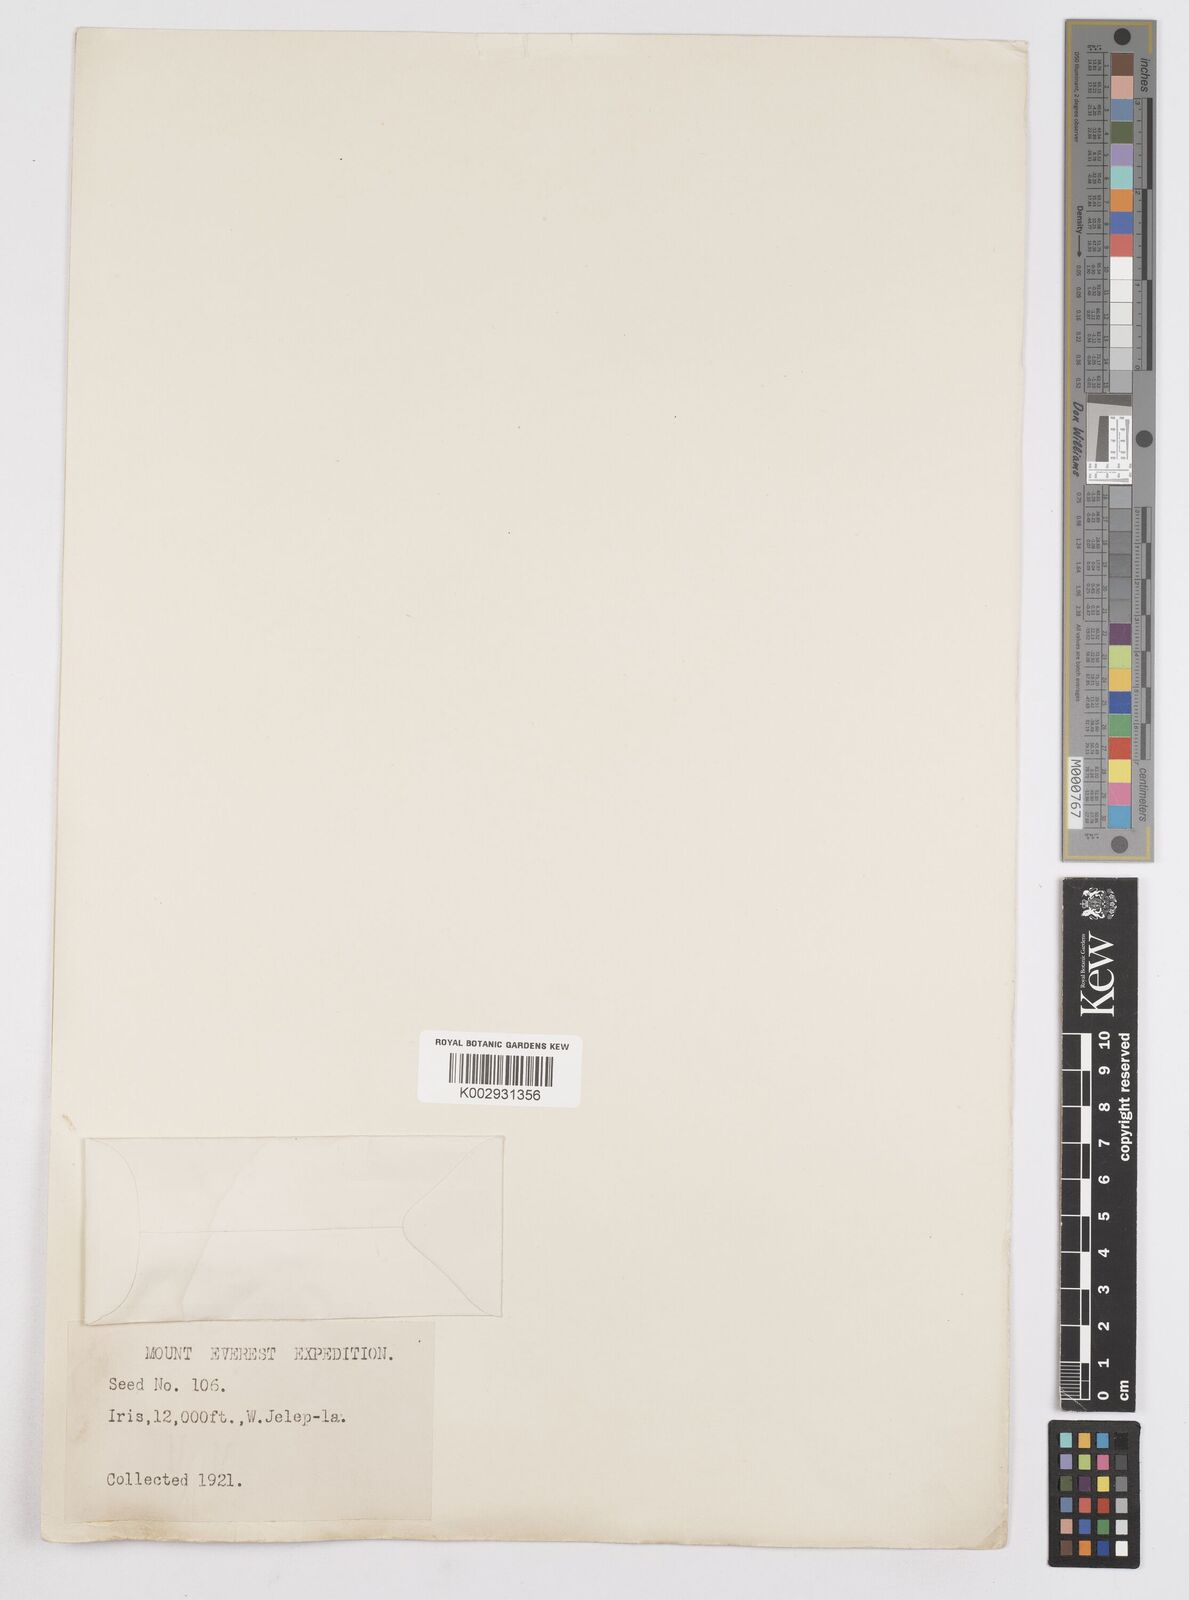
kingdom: Plantae
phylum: Tracheophyta
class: Liliopsida
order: Asparagales
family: Iridaceae
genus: Iris
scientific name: Iris
